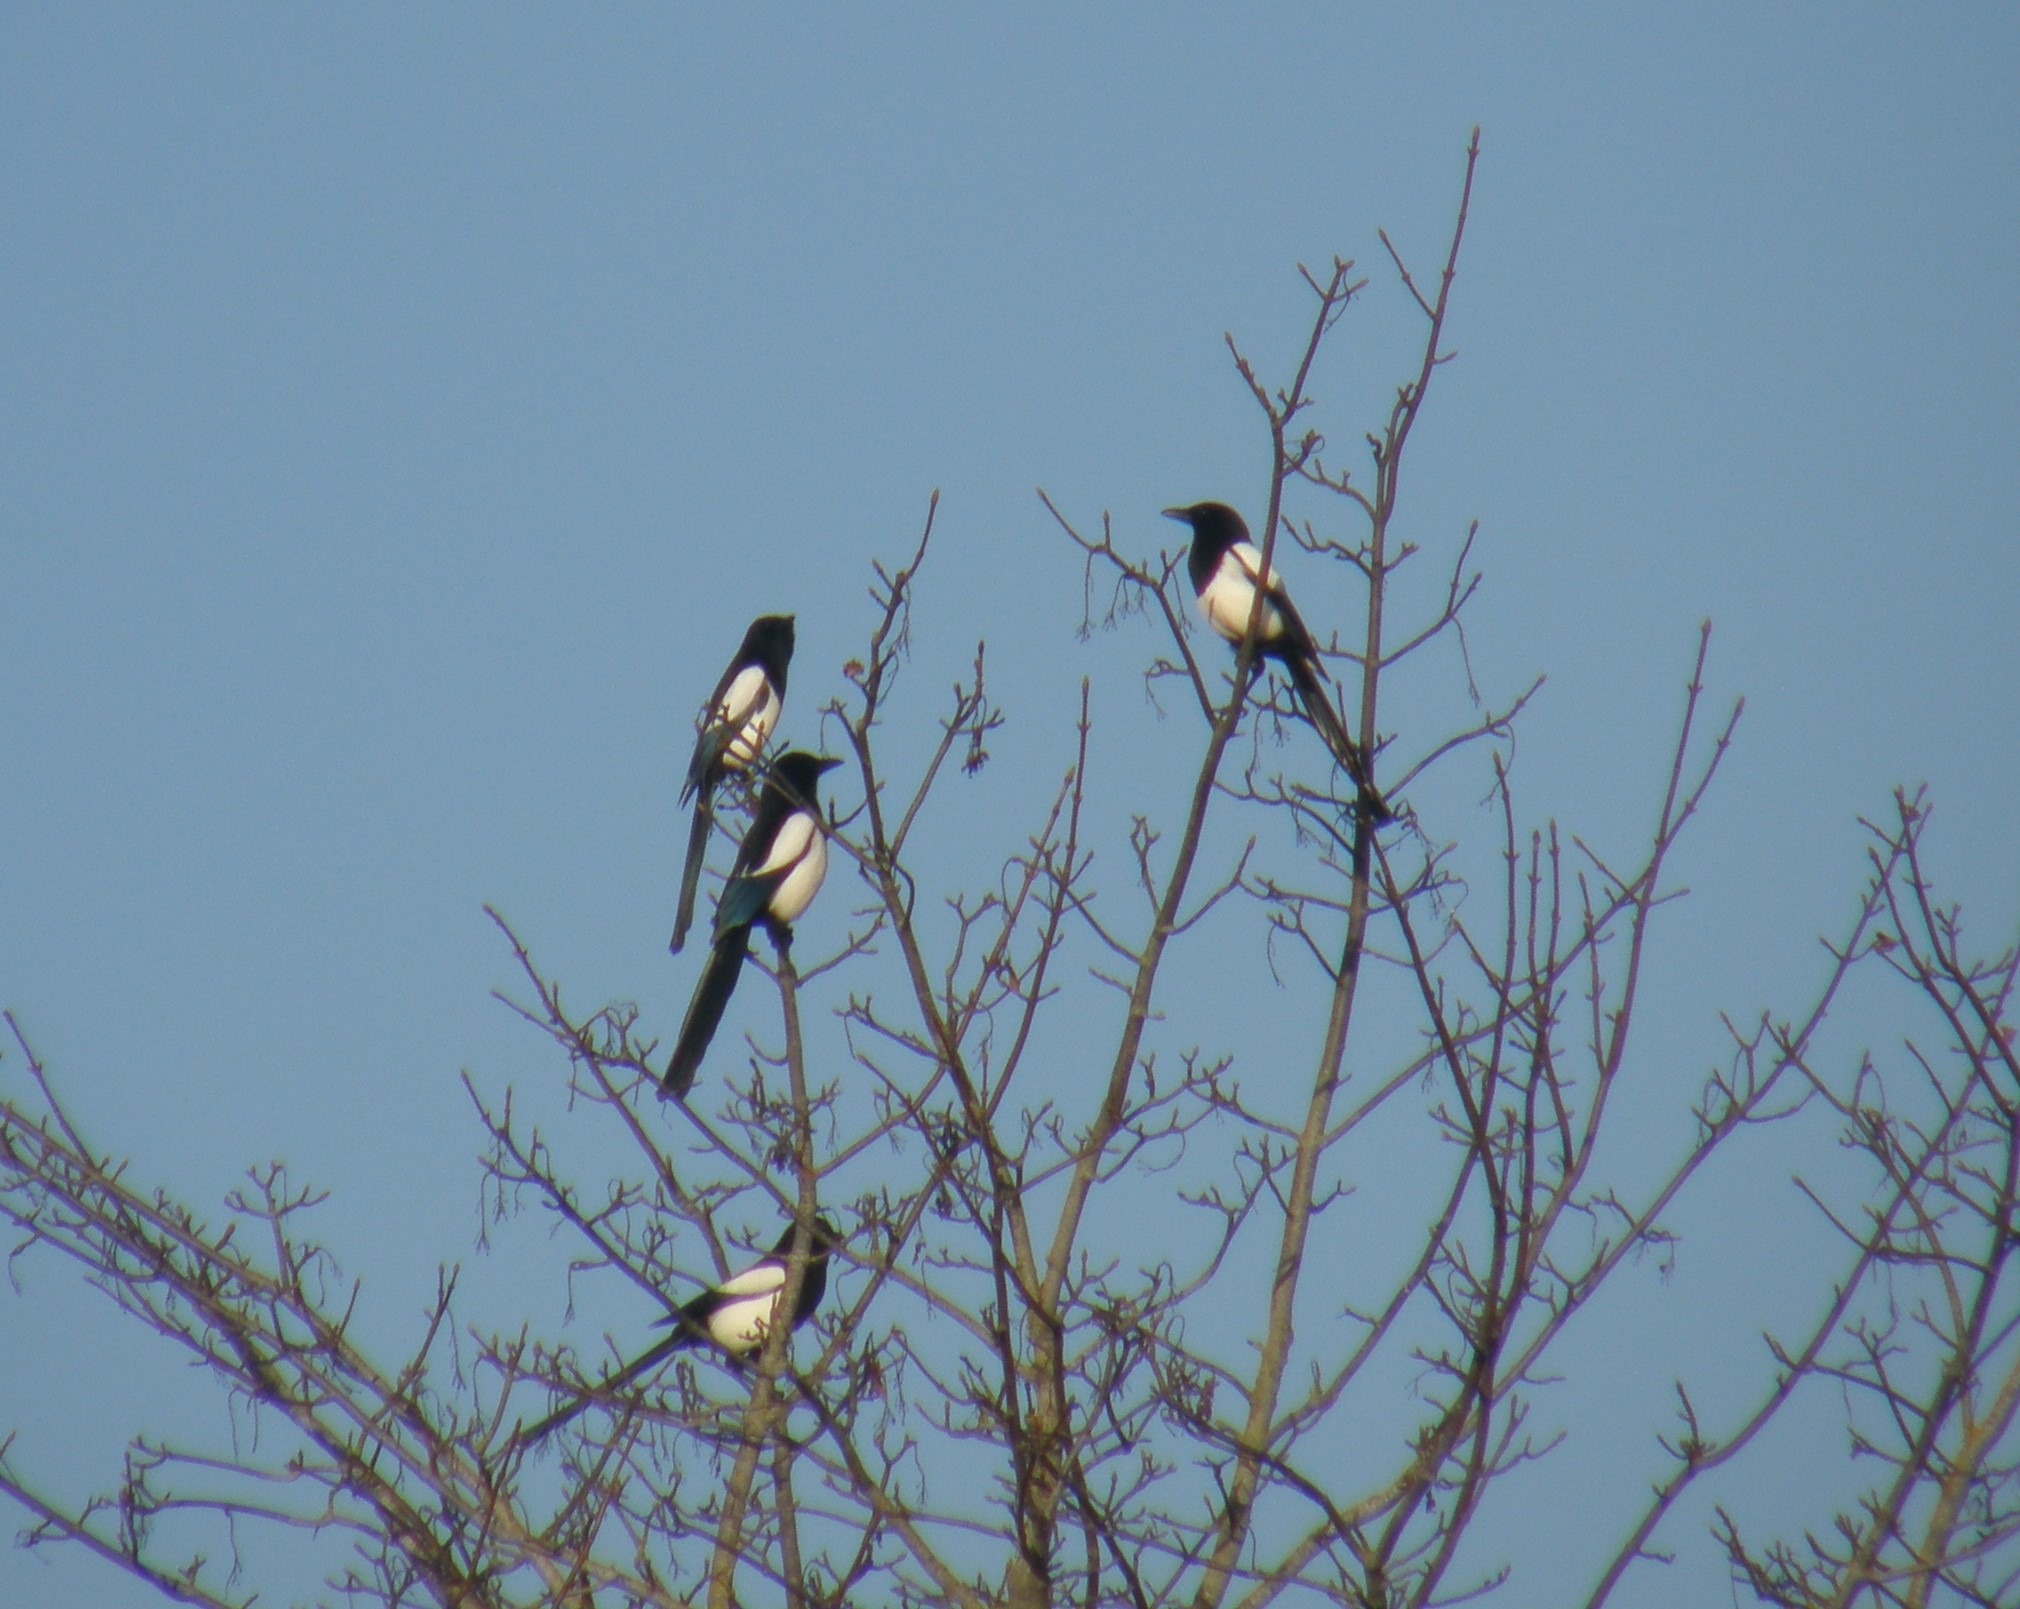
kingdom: Animalia
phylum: Chordata
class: Aves
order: Passeriformes
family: Corvidae
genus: Pica
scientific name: Pica pica
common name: Husskade
